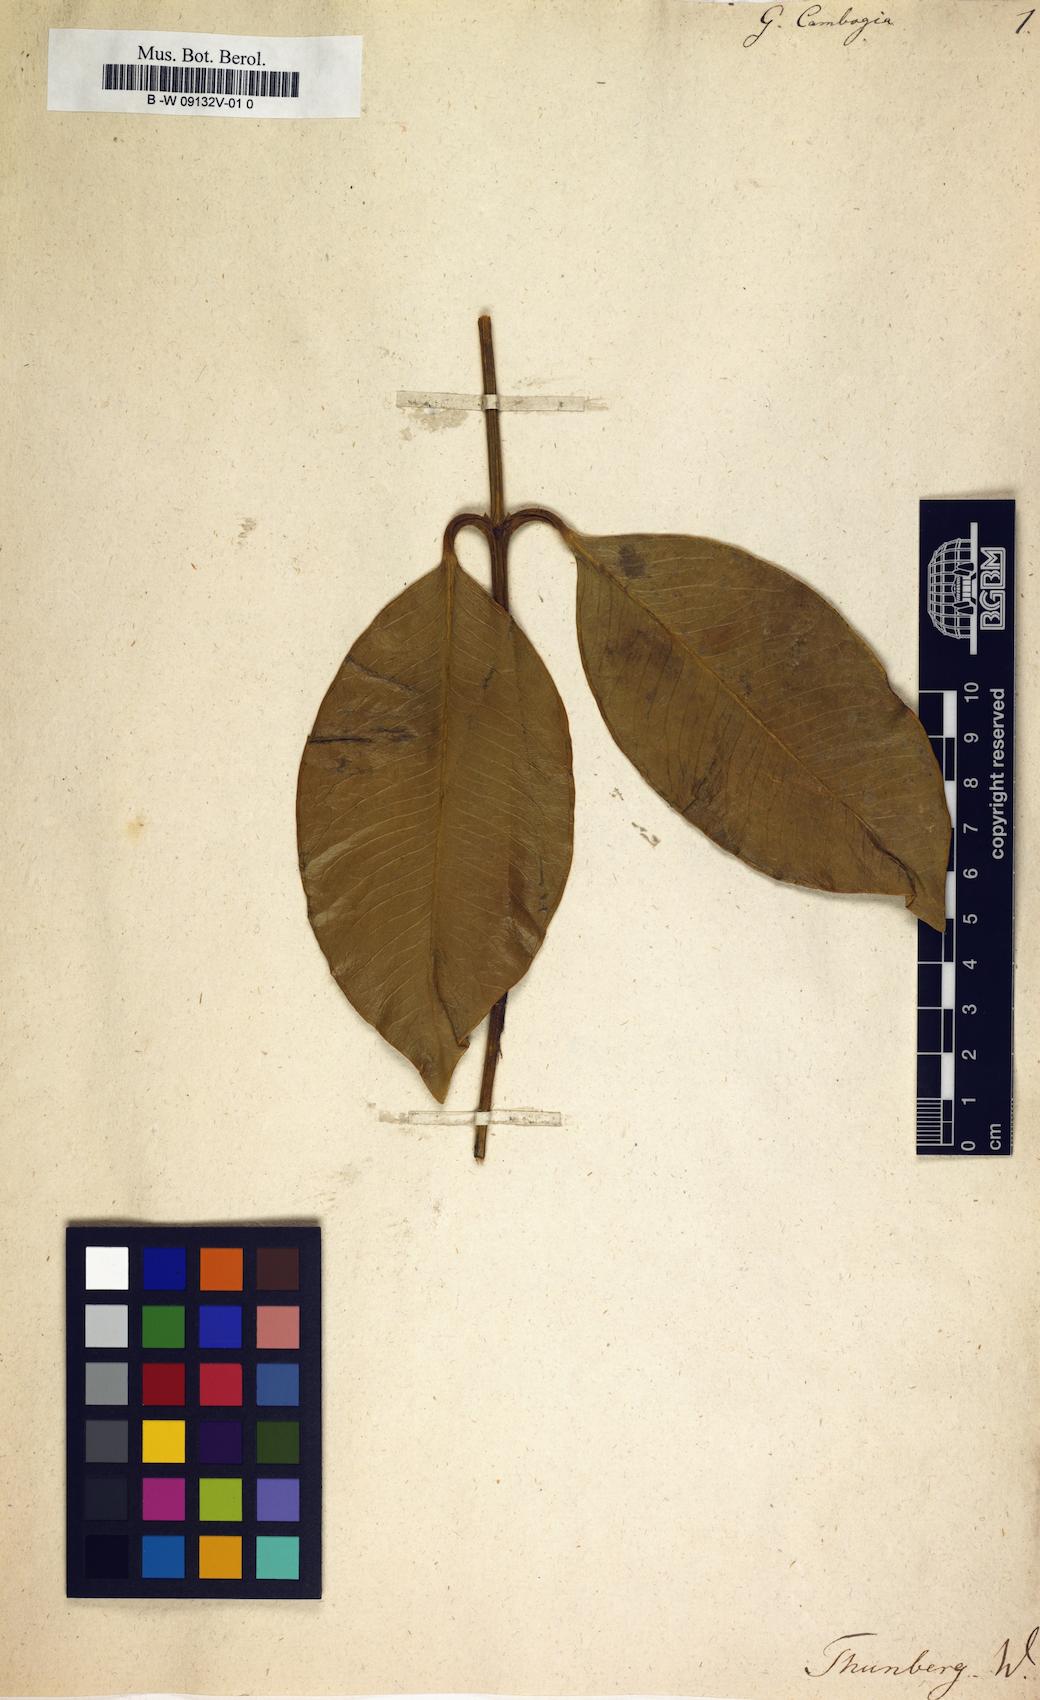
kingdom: Plantae
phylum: Tracheophyta
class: Magnoliopsida
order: Malpighiales
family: Clusiaceae
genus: Garcinia
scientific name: Garcinia gummi-gutta
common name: Malabar tamarind
